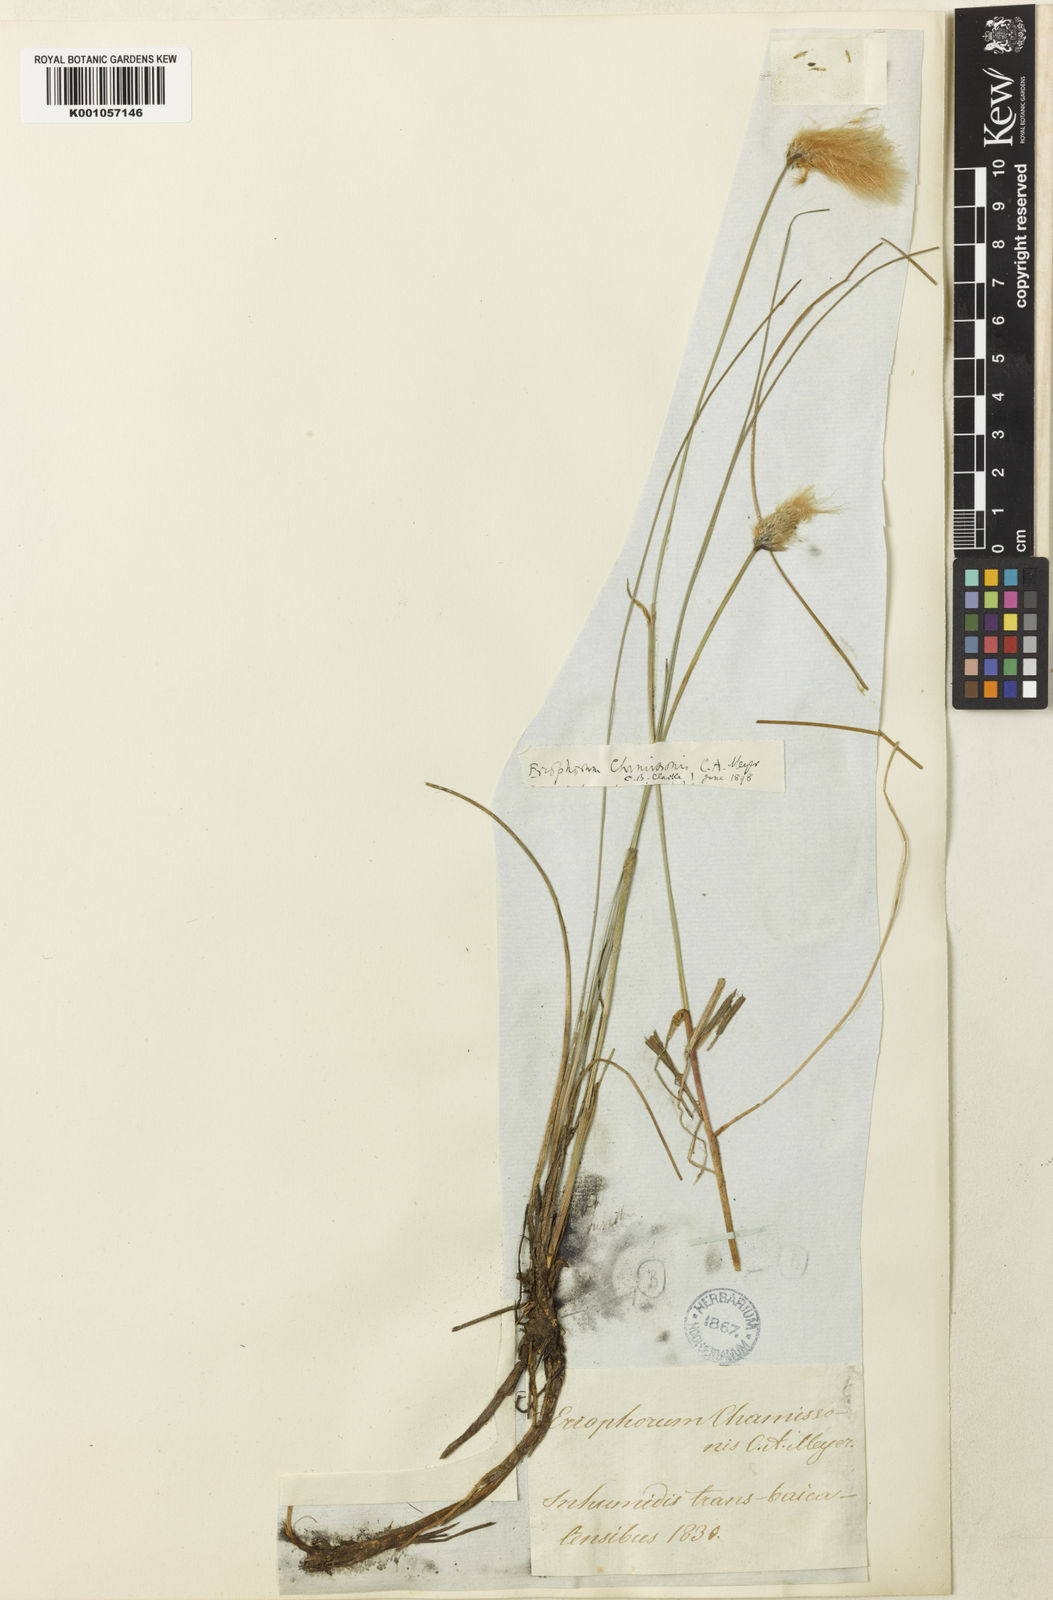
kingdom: Plantae
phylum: Tracheophyta
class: Liliopsida
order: Poales
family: Cyperaceae
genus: Eriophorum
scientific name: Eriophorum chamissonis
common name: Chamisso's cottongrass
